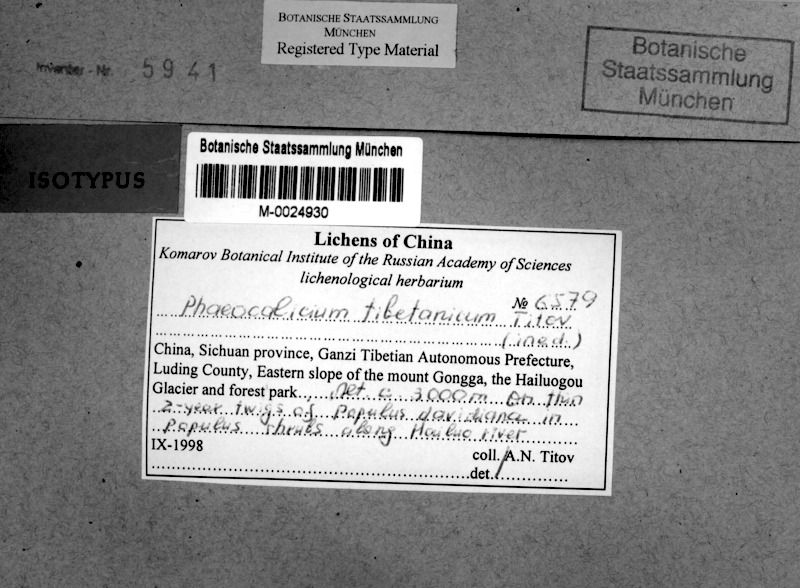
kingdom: Fungi
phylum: Ascomycota
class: Eurotiomycetes
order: Mycocaliciales
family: Mycocaliciaceae
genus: Phaeocalicium
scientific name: Phaeocalicium tibetanicum
